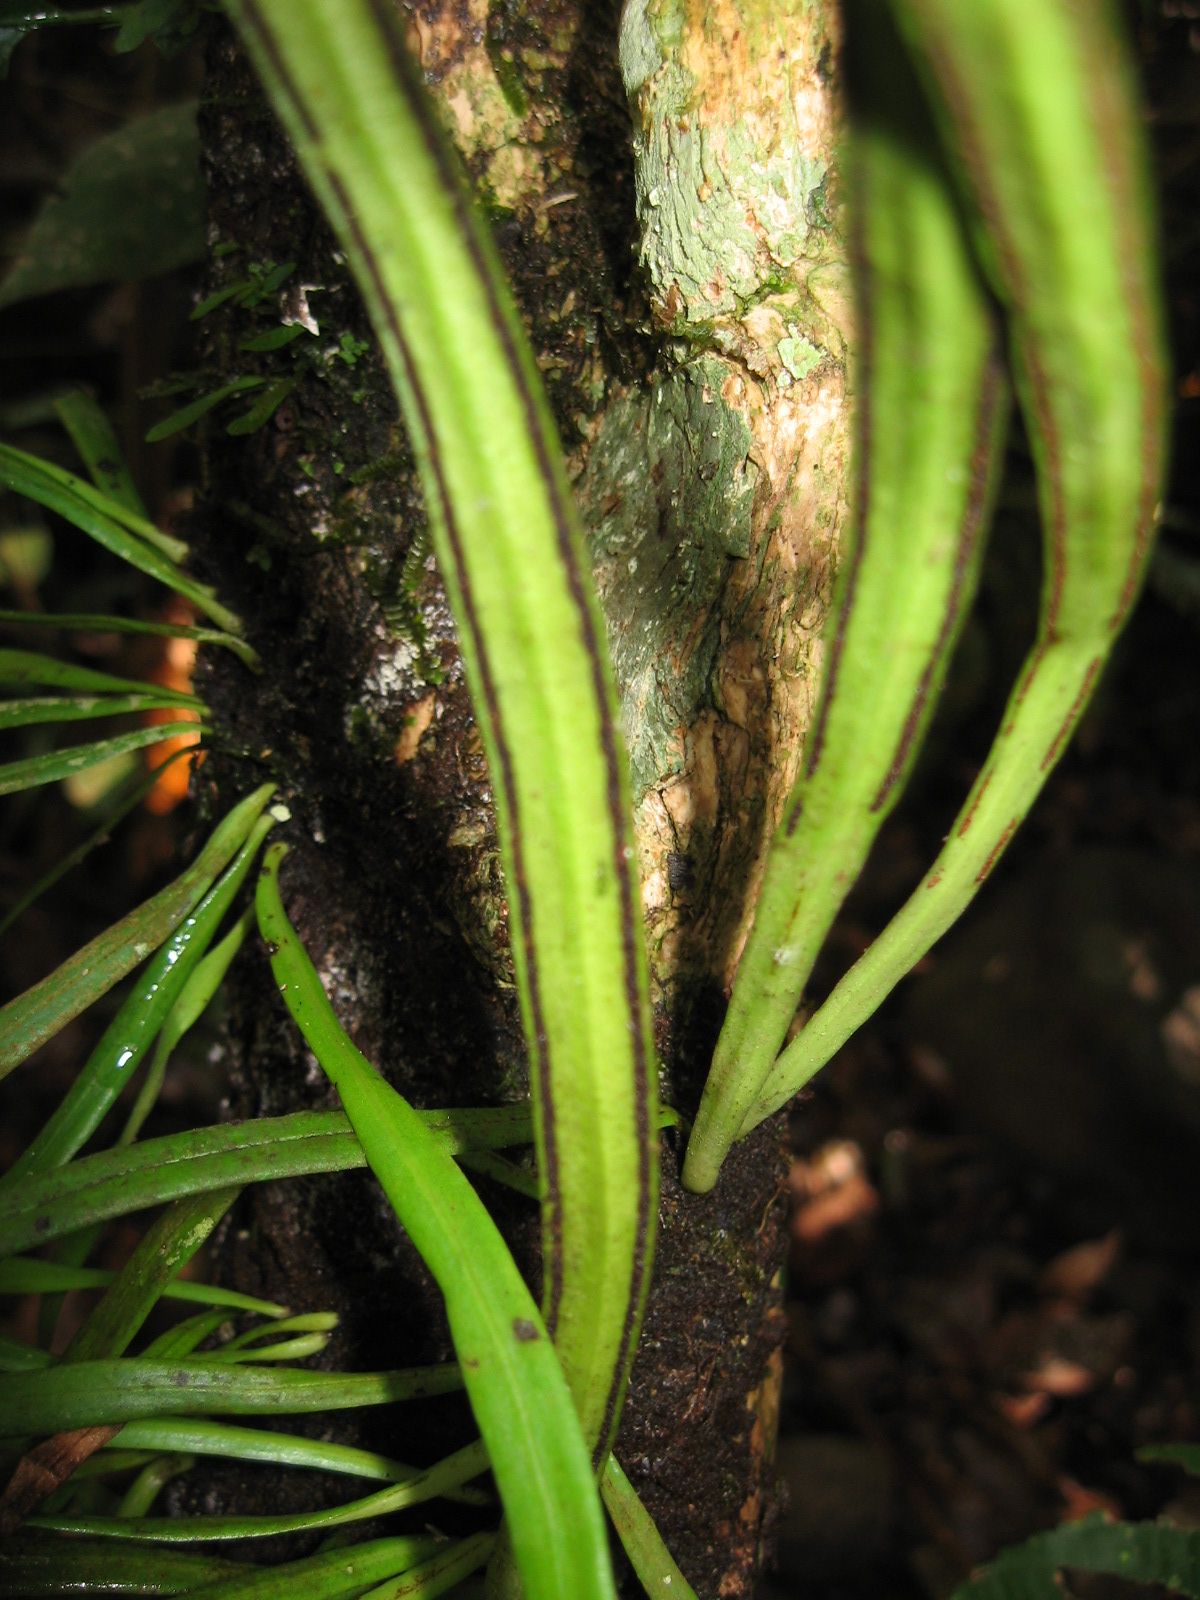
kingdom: Plantae
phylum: Tracheophyta
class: Polypodiopsida
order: Polypodiales
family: Pteridaceae
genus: Ananthacorus
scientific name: Ananthacorus angustifolius
